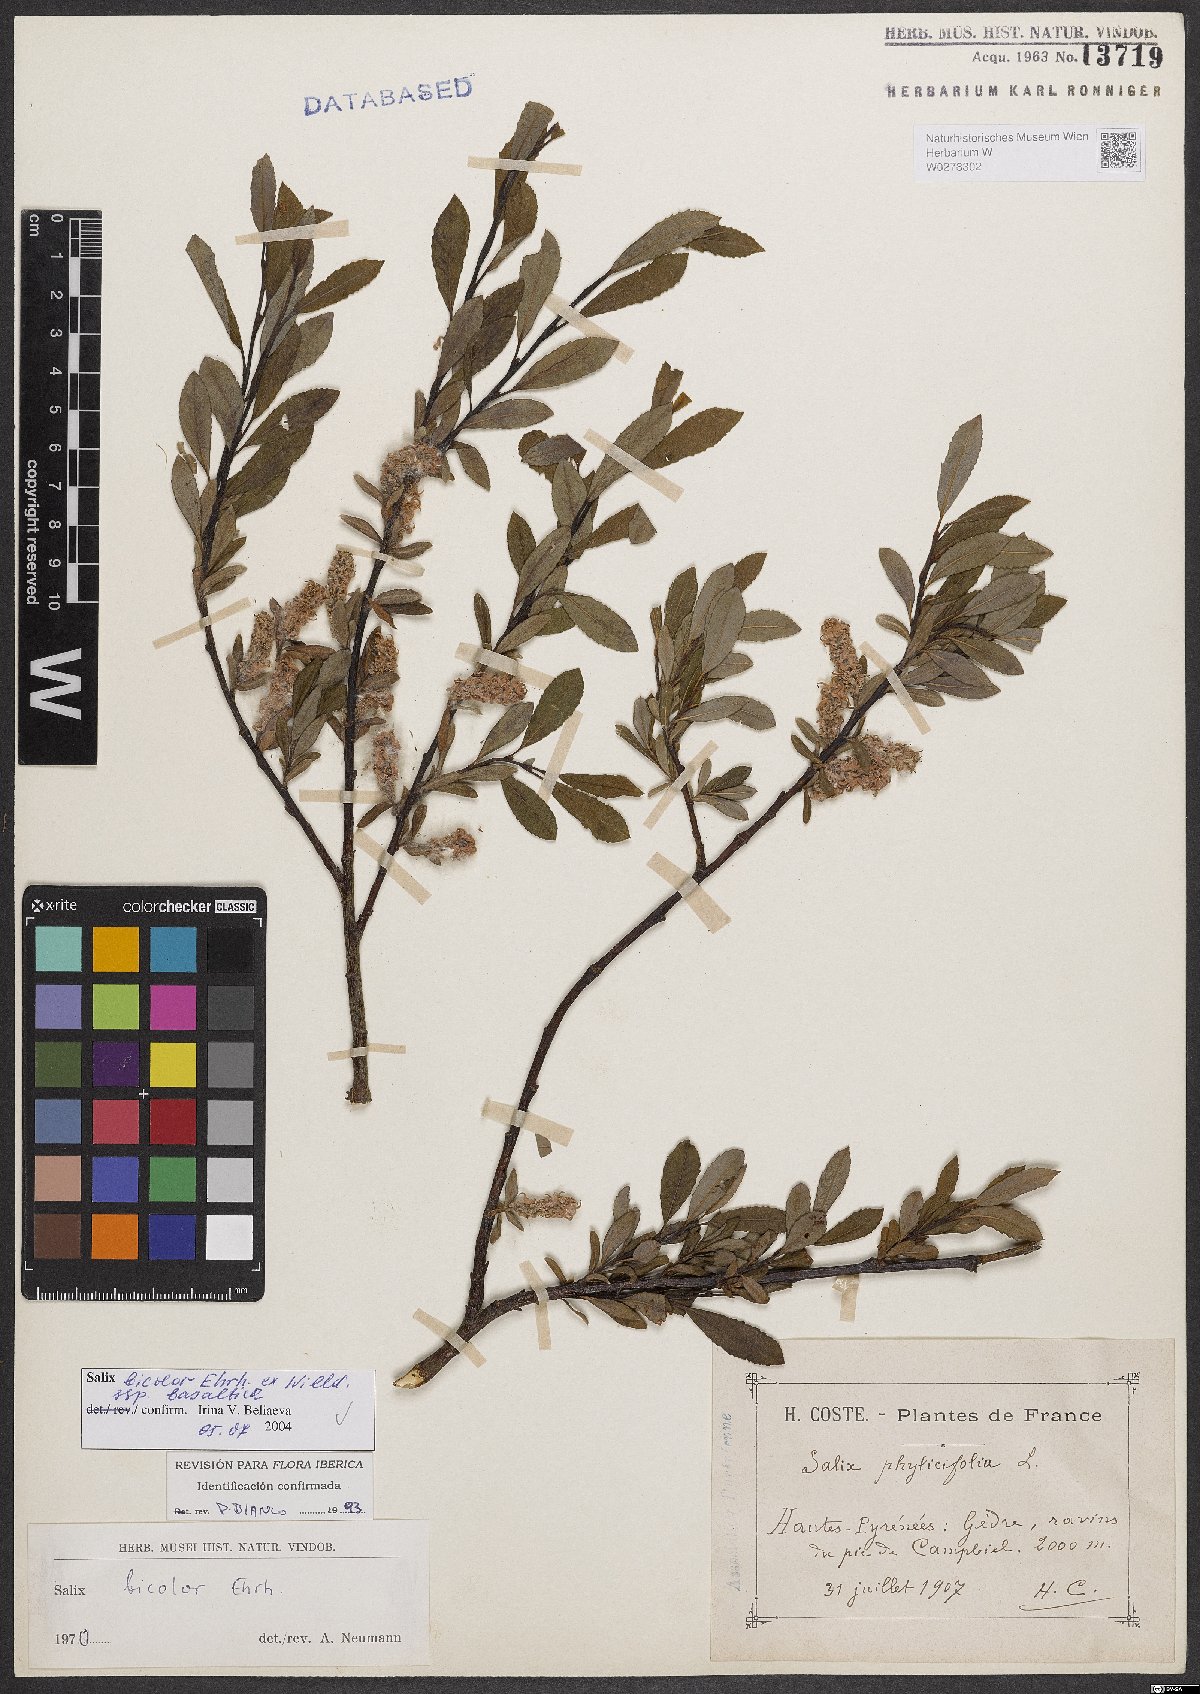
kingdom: Plantae
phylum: Tracheophyta
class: Magnoliopsida
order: Malpighiales
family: Salicaceae
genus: Salix
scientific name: Salix basaltica
